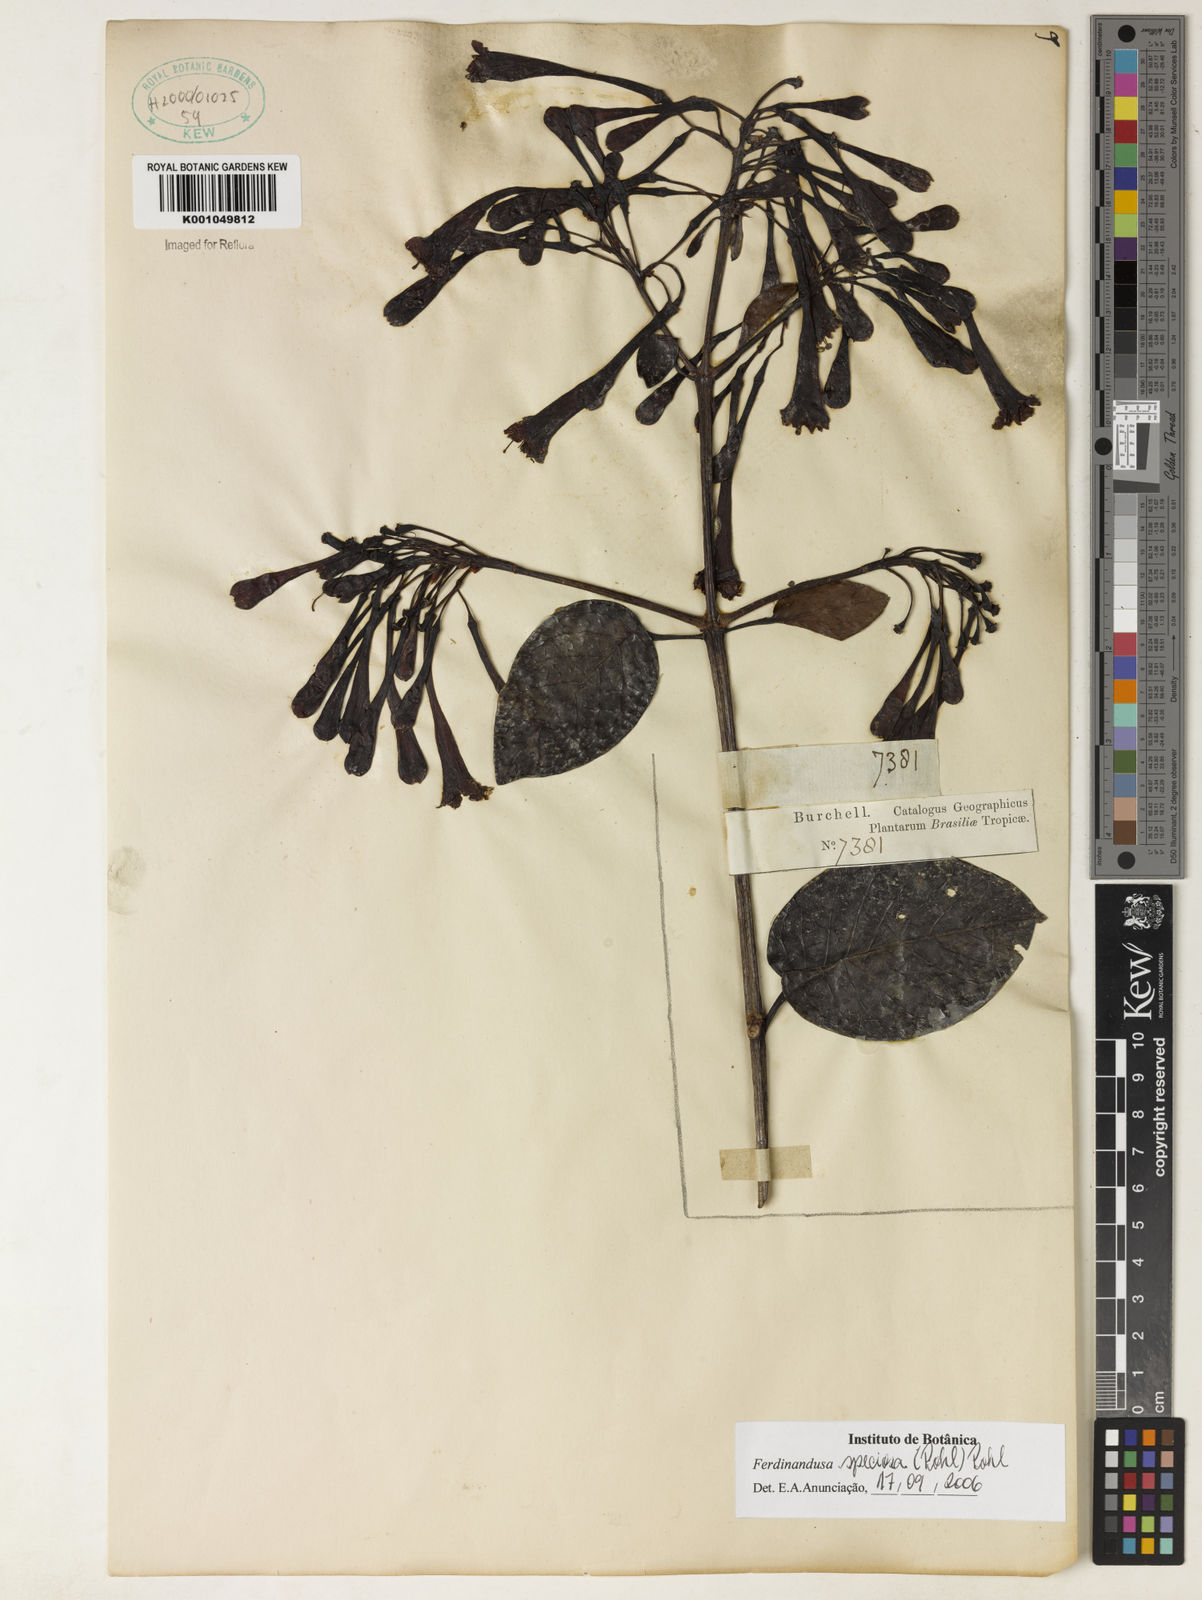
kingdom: Plantae
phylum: Tracheophyta
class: Magnoliopsida
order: Gentianales
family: Rubiaceae
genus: Ferdinandusa
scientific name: Ferdinandusa speciosa
